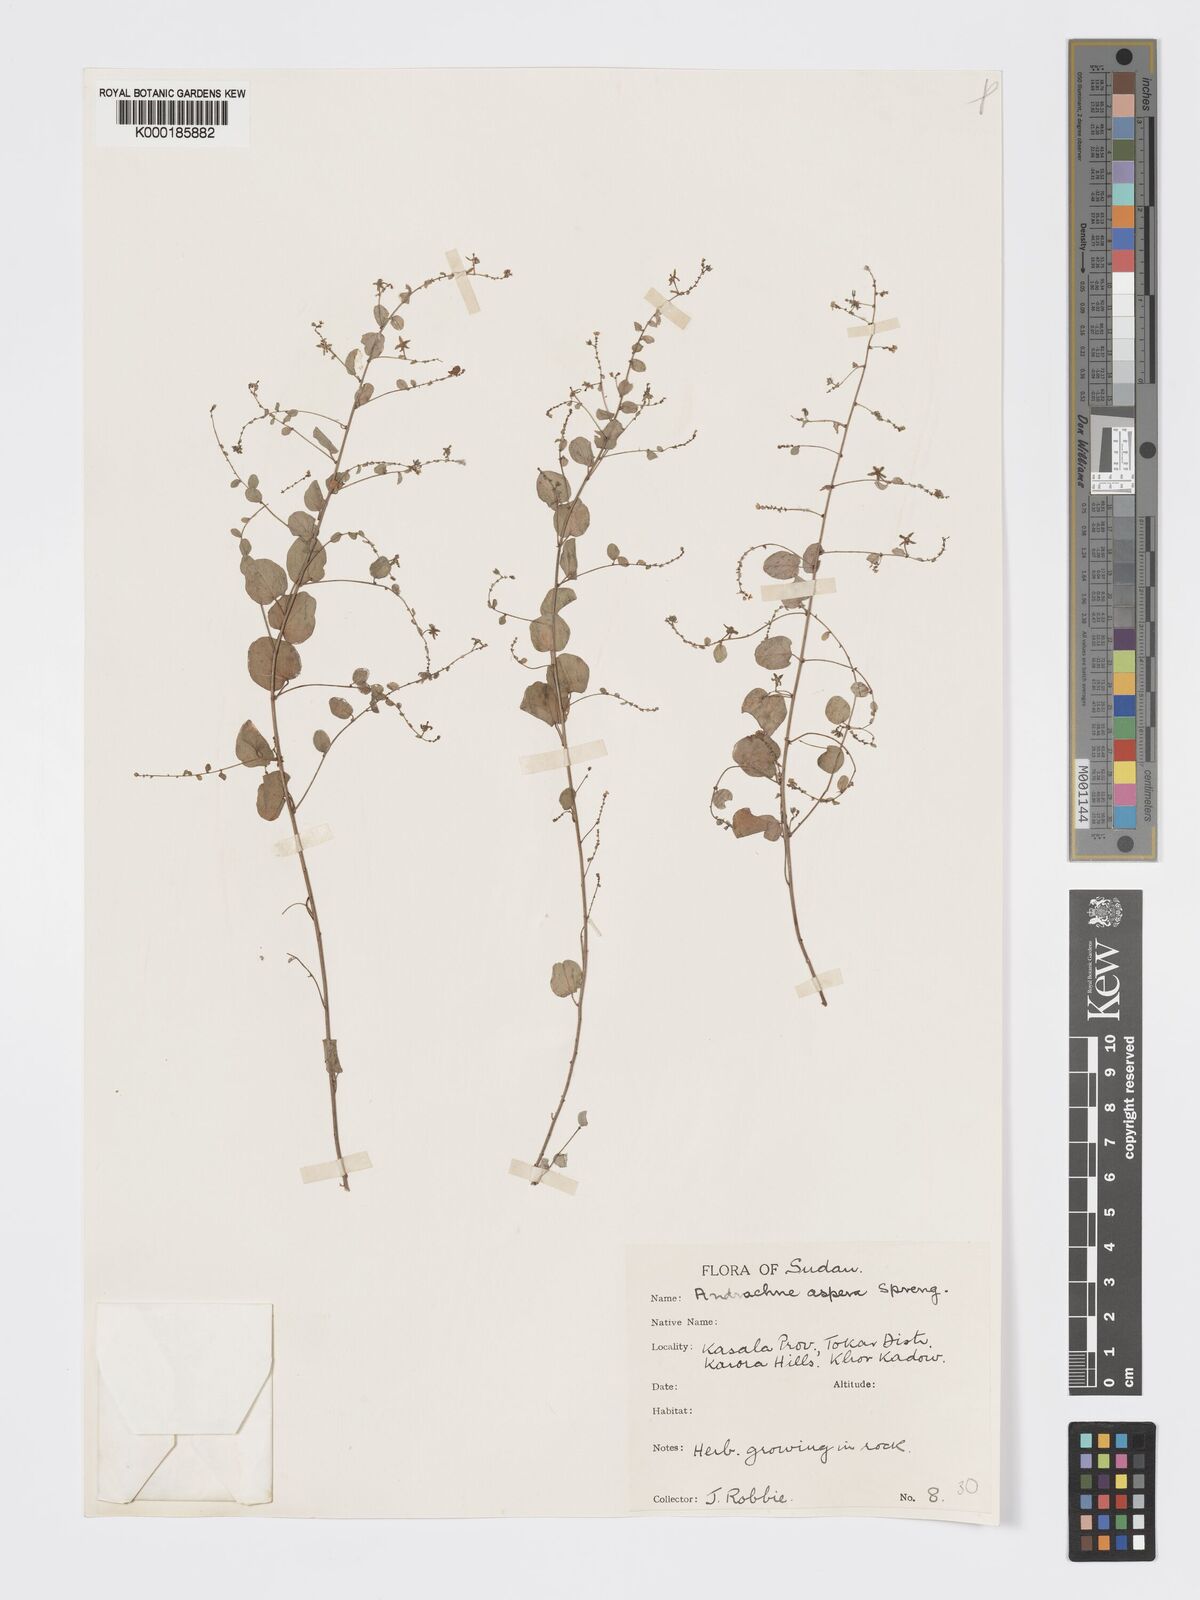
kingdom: Plantae
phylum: Tracheophyta
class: Magnoliopsida
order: Malpighiales
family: Phyllanthaceae
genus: Andrachne
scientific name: Andrachne aspera
